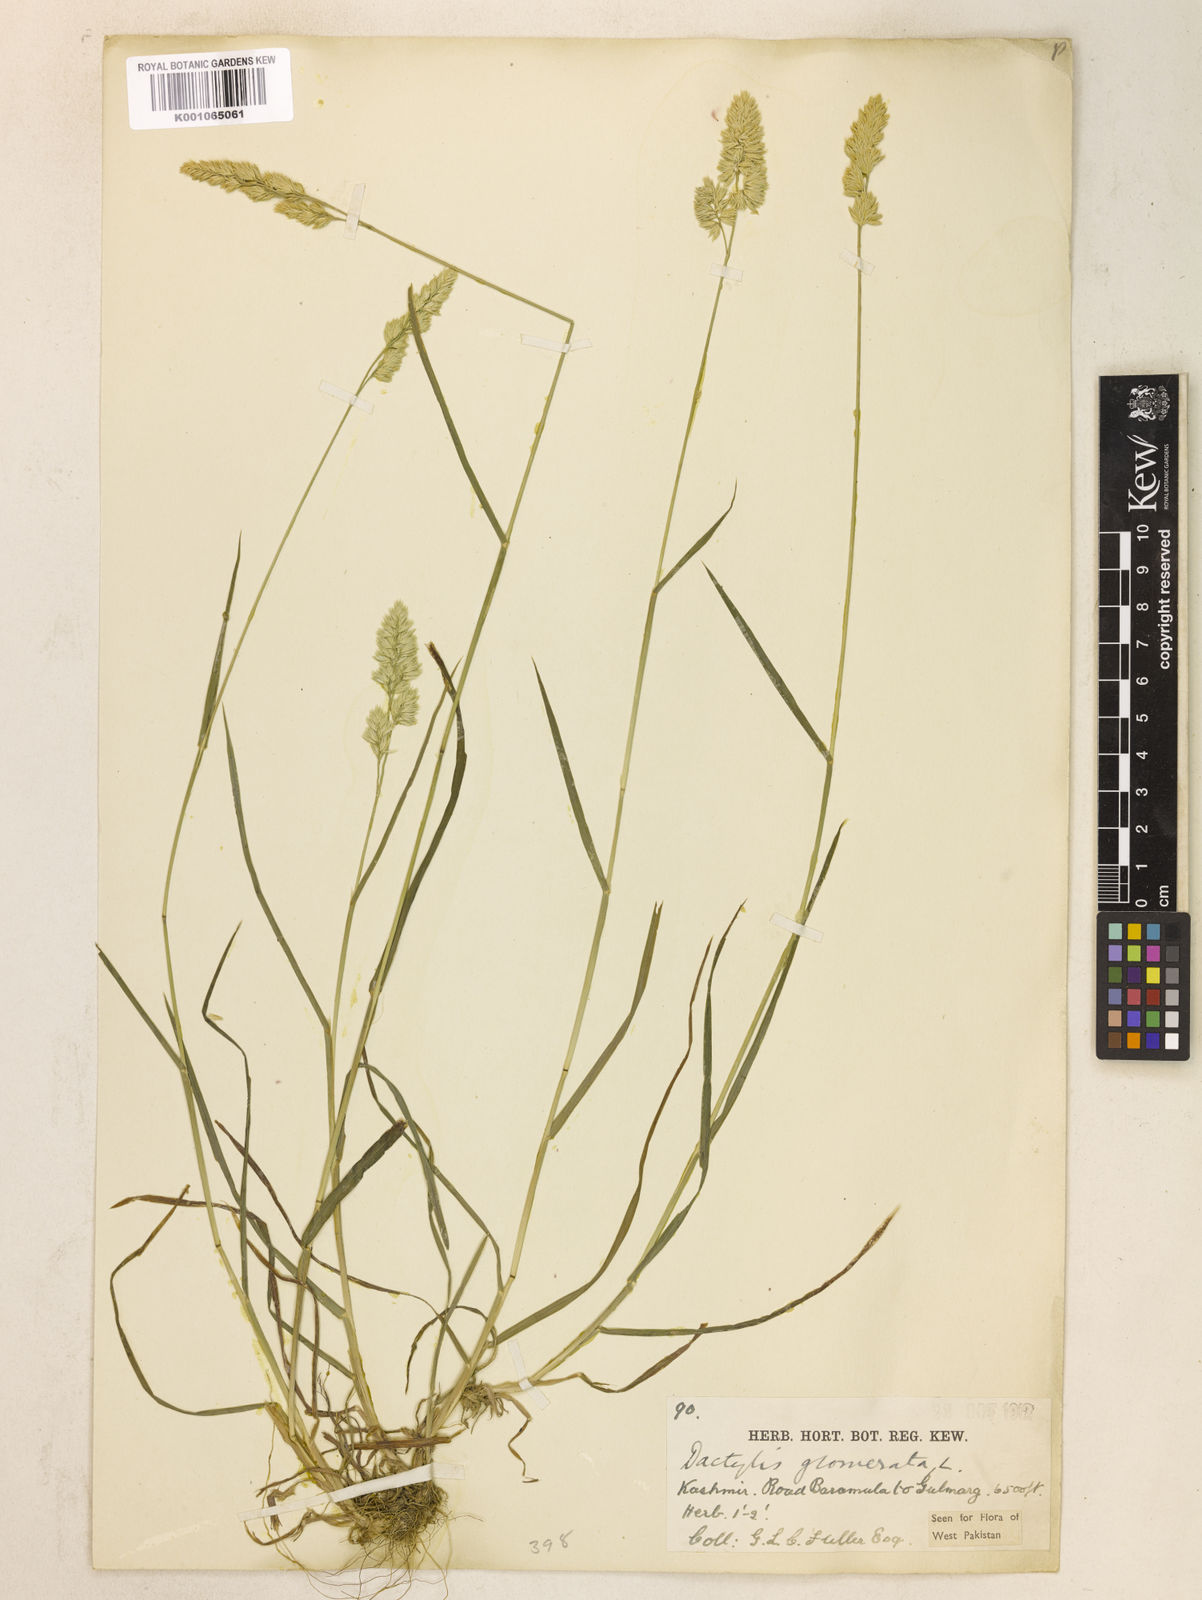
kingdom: Plantae
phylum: Tracheophyta
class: Liliopsida
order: Poales
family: Poaceae
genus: Dactylis
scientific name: Dactylis glomerata
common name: Orchardgrass
